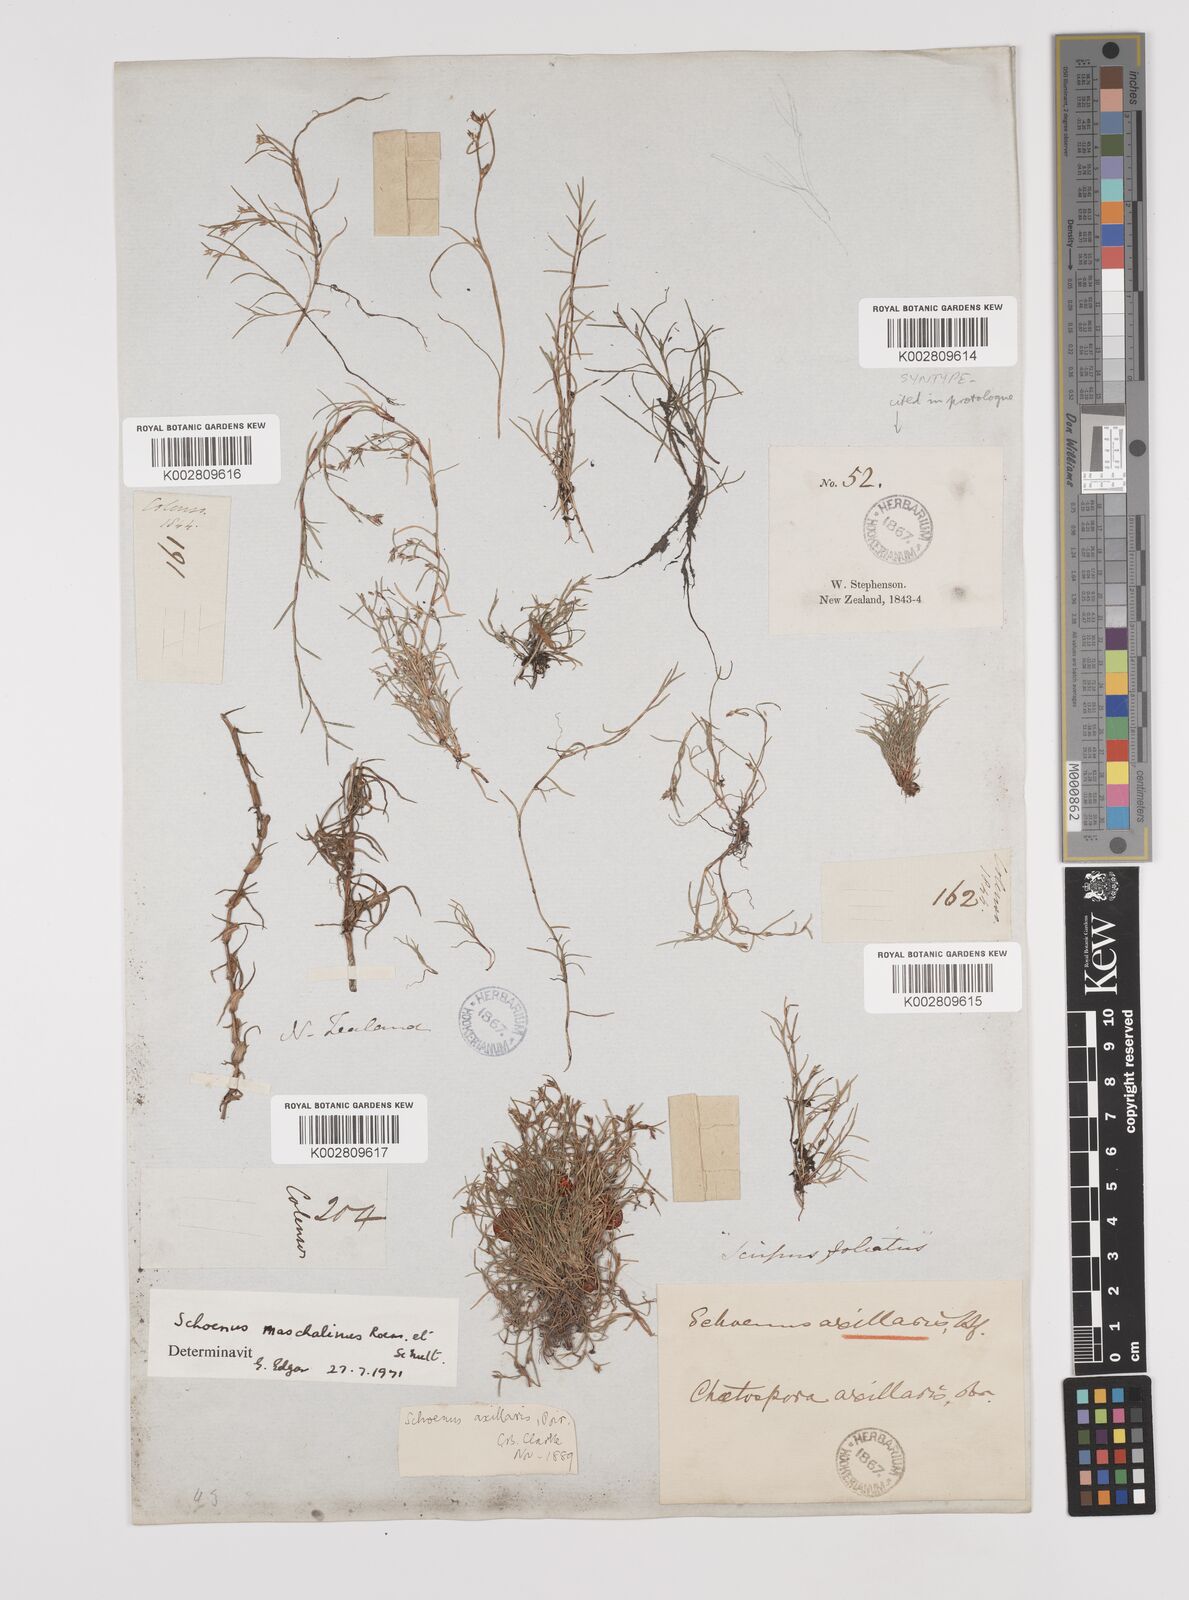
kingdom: Plantae
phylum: Tracheophyta
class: Liliopsida
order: Poales
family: Cyperaceae
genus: Schoenus
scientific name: Schoenus maschalinus
